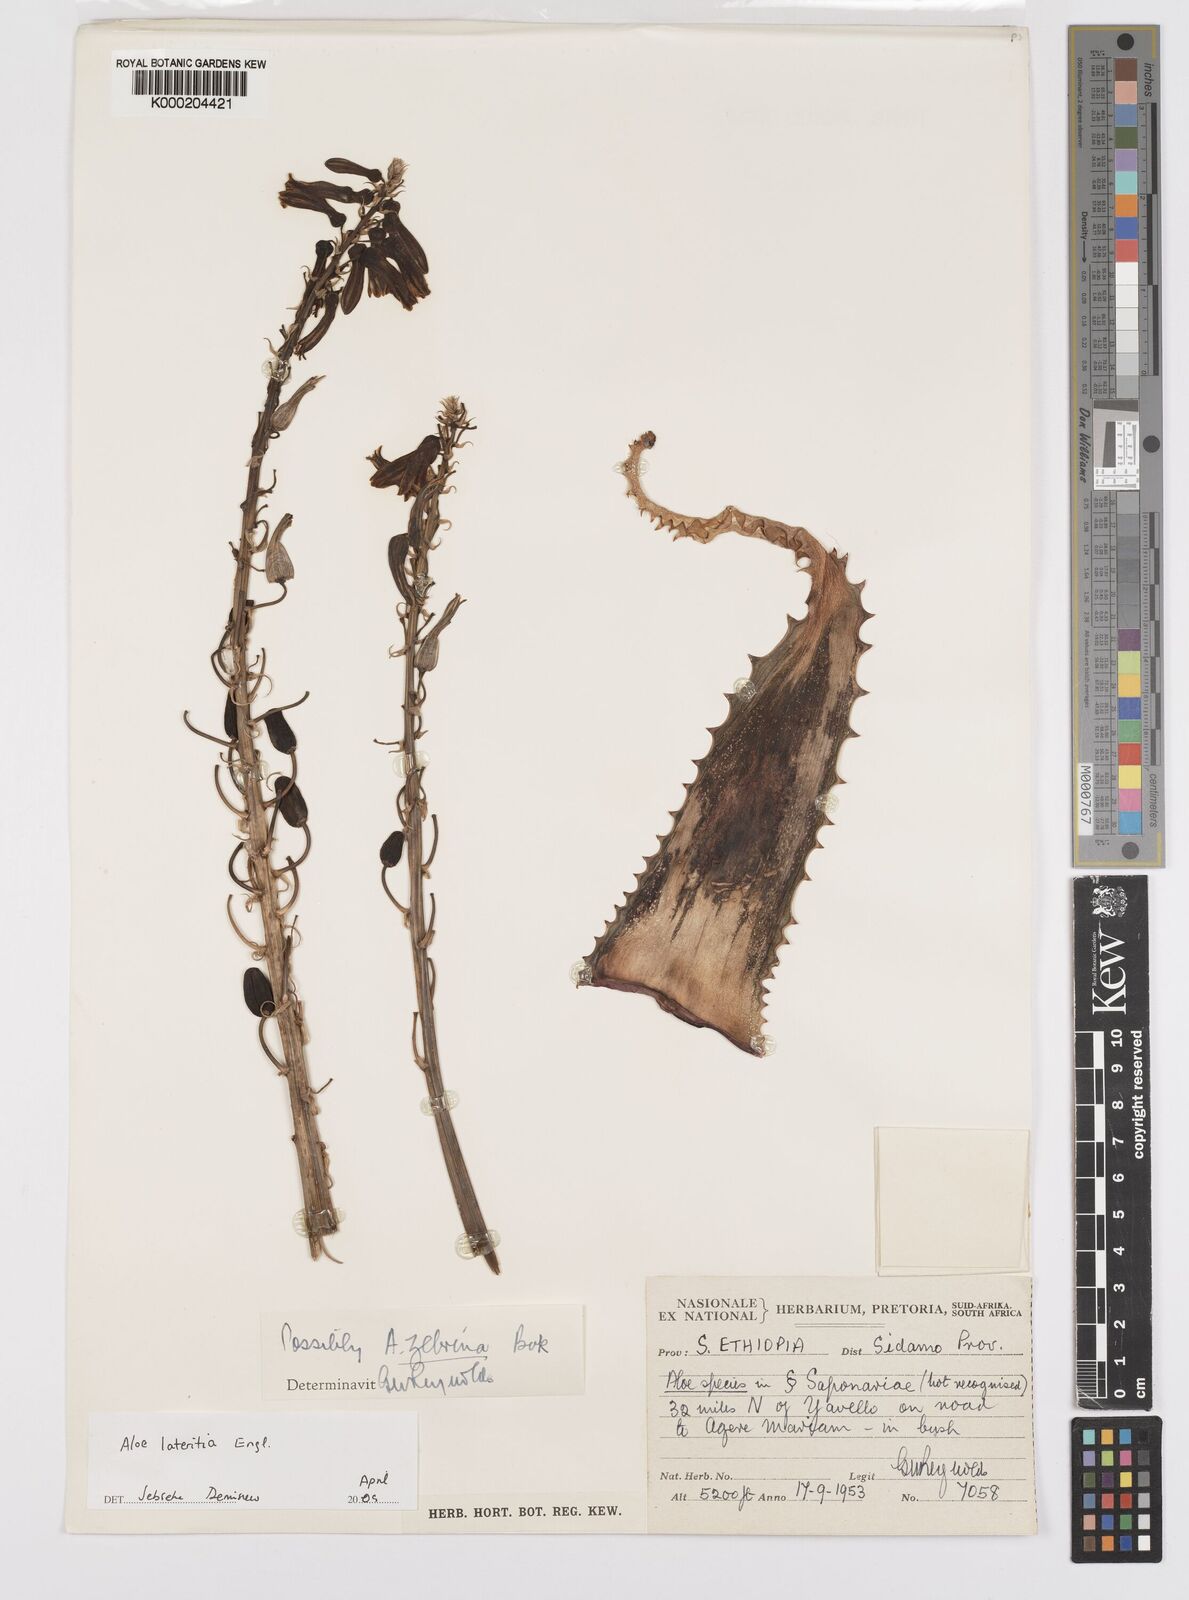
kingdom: Plantae
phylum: Tracheophyta
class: Liliopsida
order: Asparagales
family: Asphodelaceae
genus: Aloe
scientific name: Aloe lateritia
